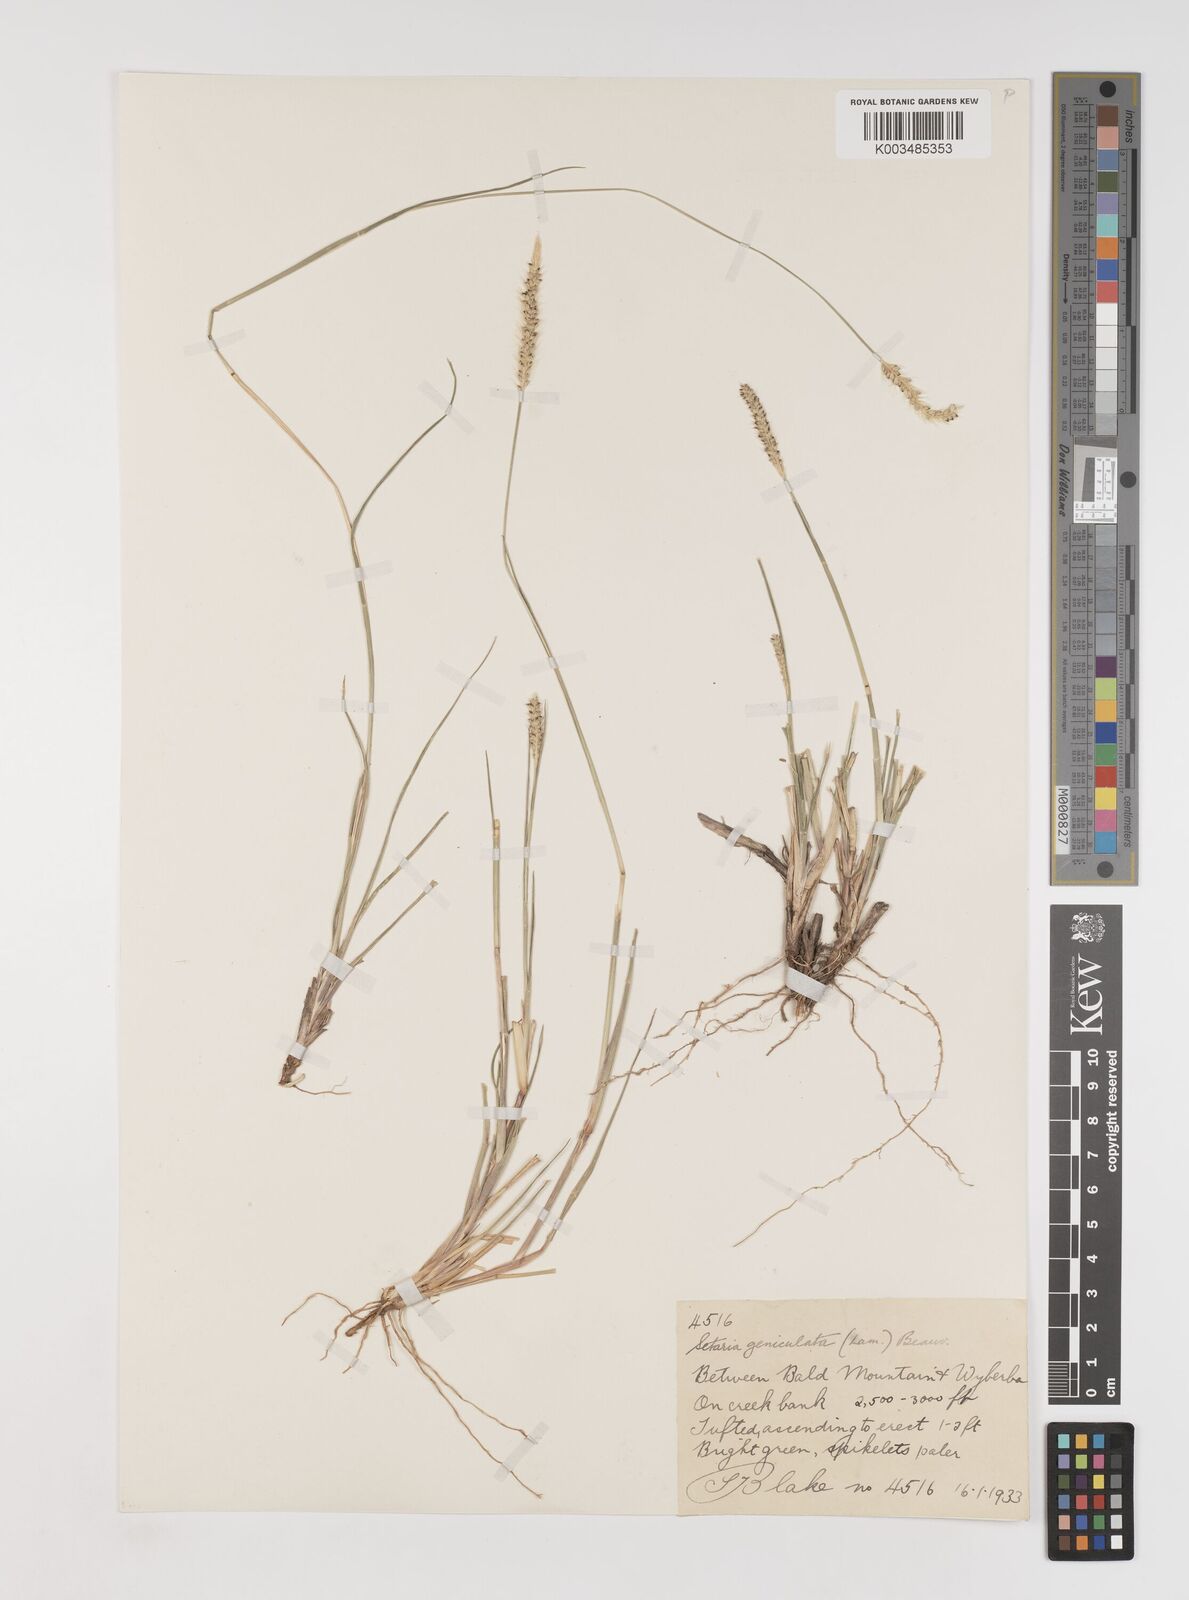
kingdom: Plantae
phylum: Tracheophyta
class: Liliopsida
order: Poales
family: Poaceae
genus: Setaria
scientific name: Setaria parviflora
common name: Knotroot bristle-grass
